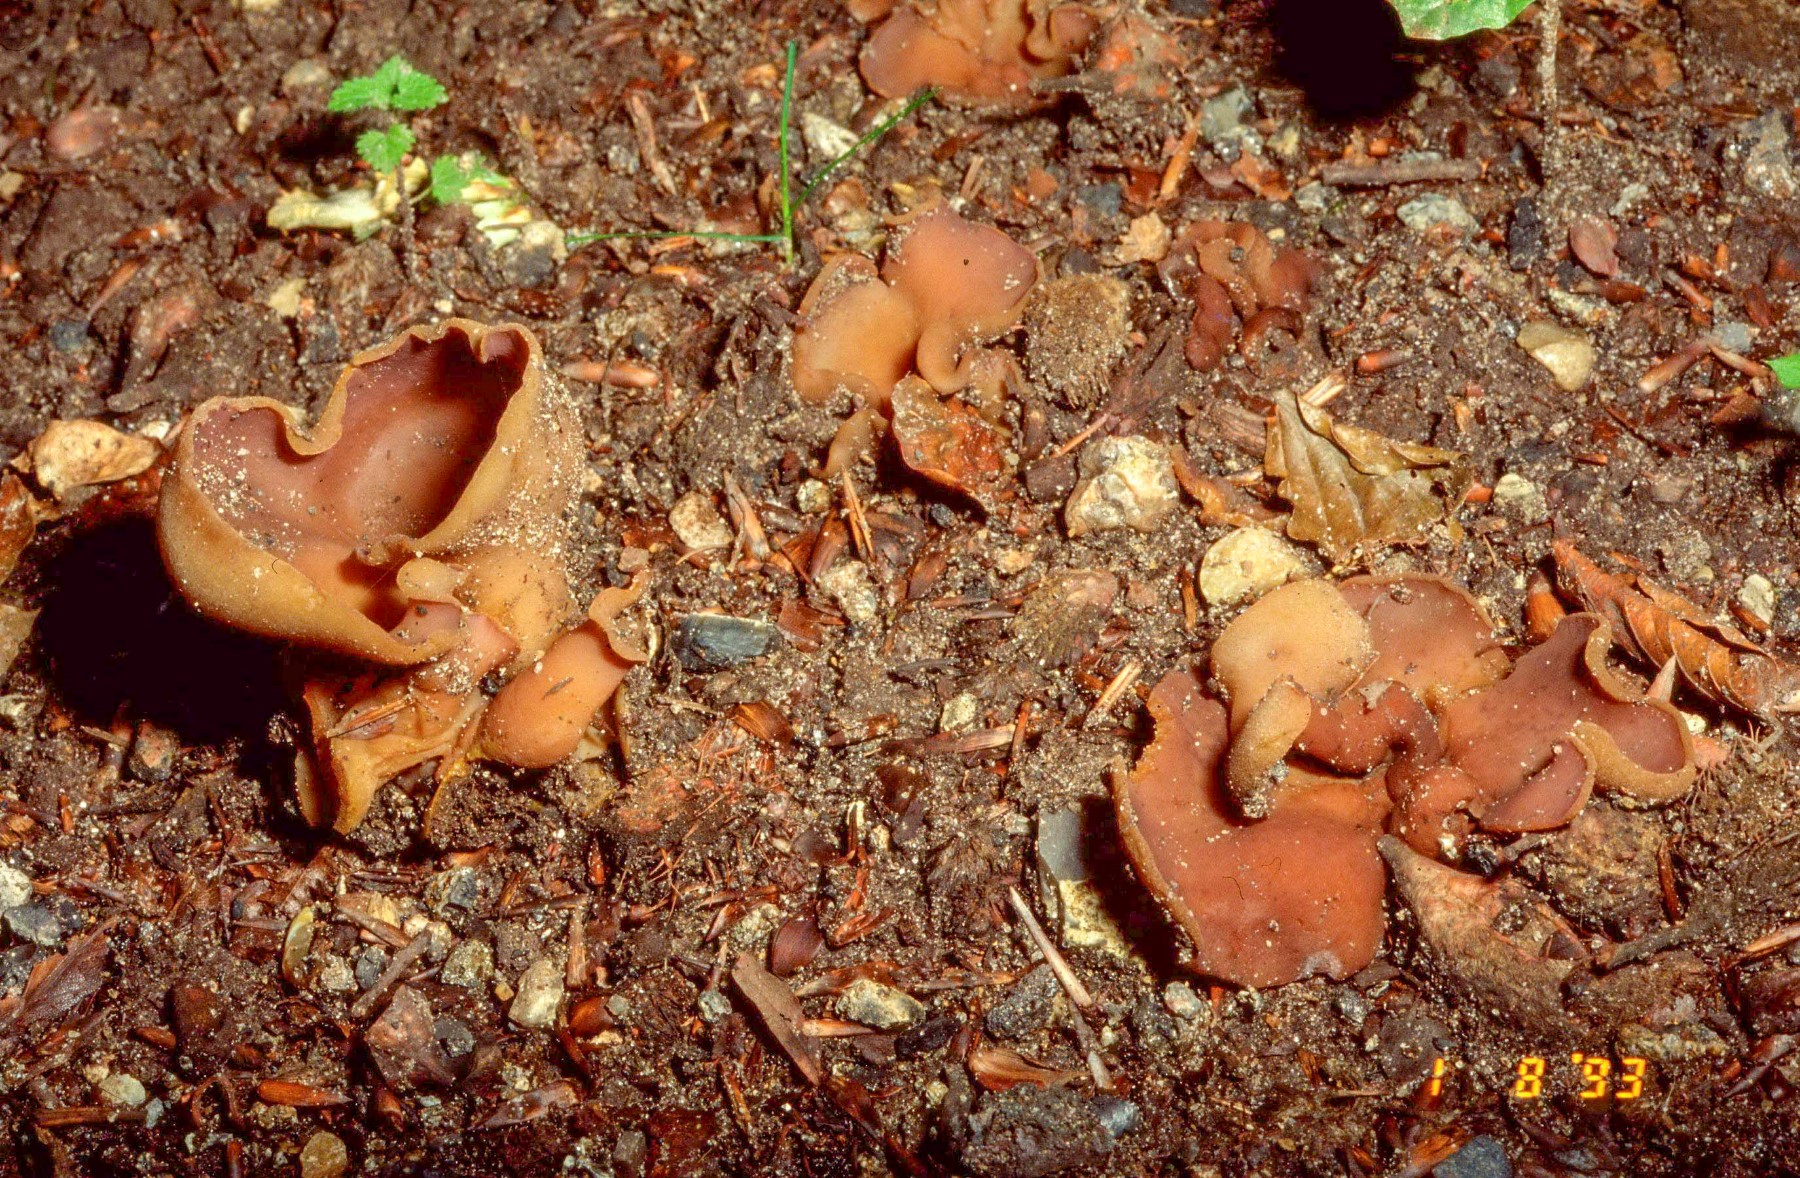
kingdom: Fungi
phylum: Ascomycota
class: Pezizomycetes
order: Pezizales
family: Pezizaceae
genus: Paragalactinia
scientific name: Paragalactinia michelii
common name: gulkødet bægersvamp
